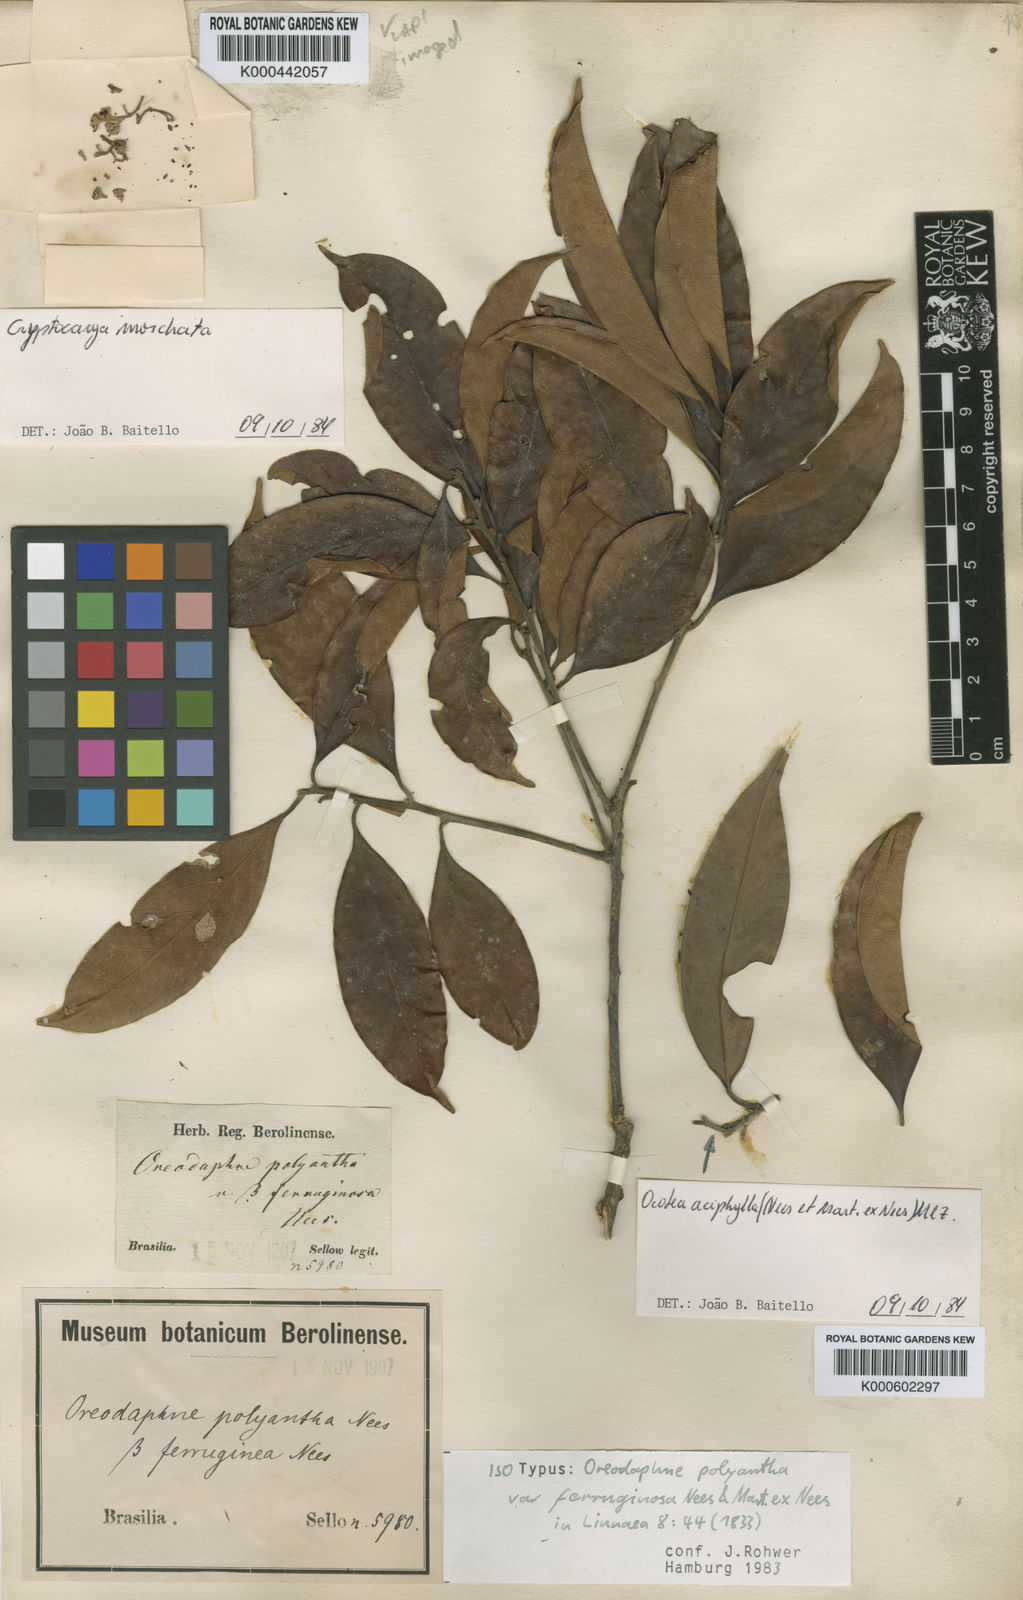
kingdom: Plantae
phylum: Tracheophyta
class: Magnoliopsida
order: Laurales
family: Lauraceae
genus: Ocotea
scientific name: Ocotea polyantha
